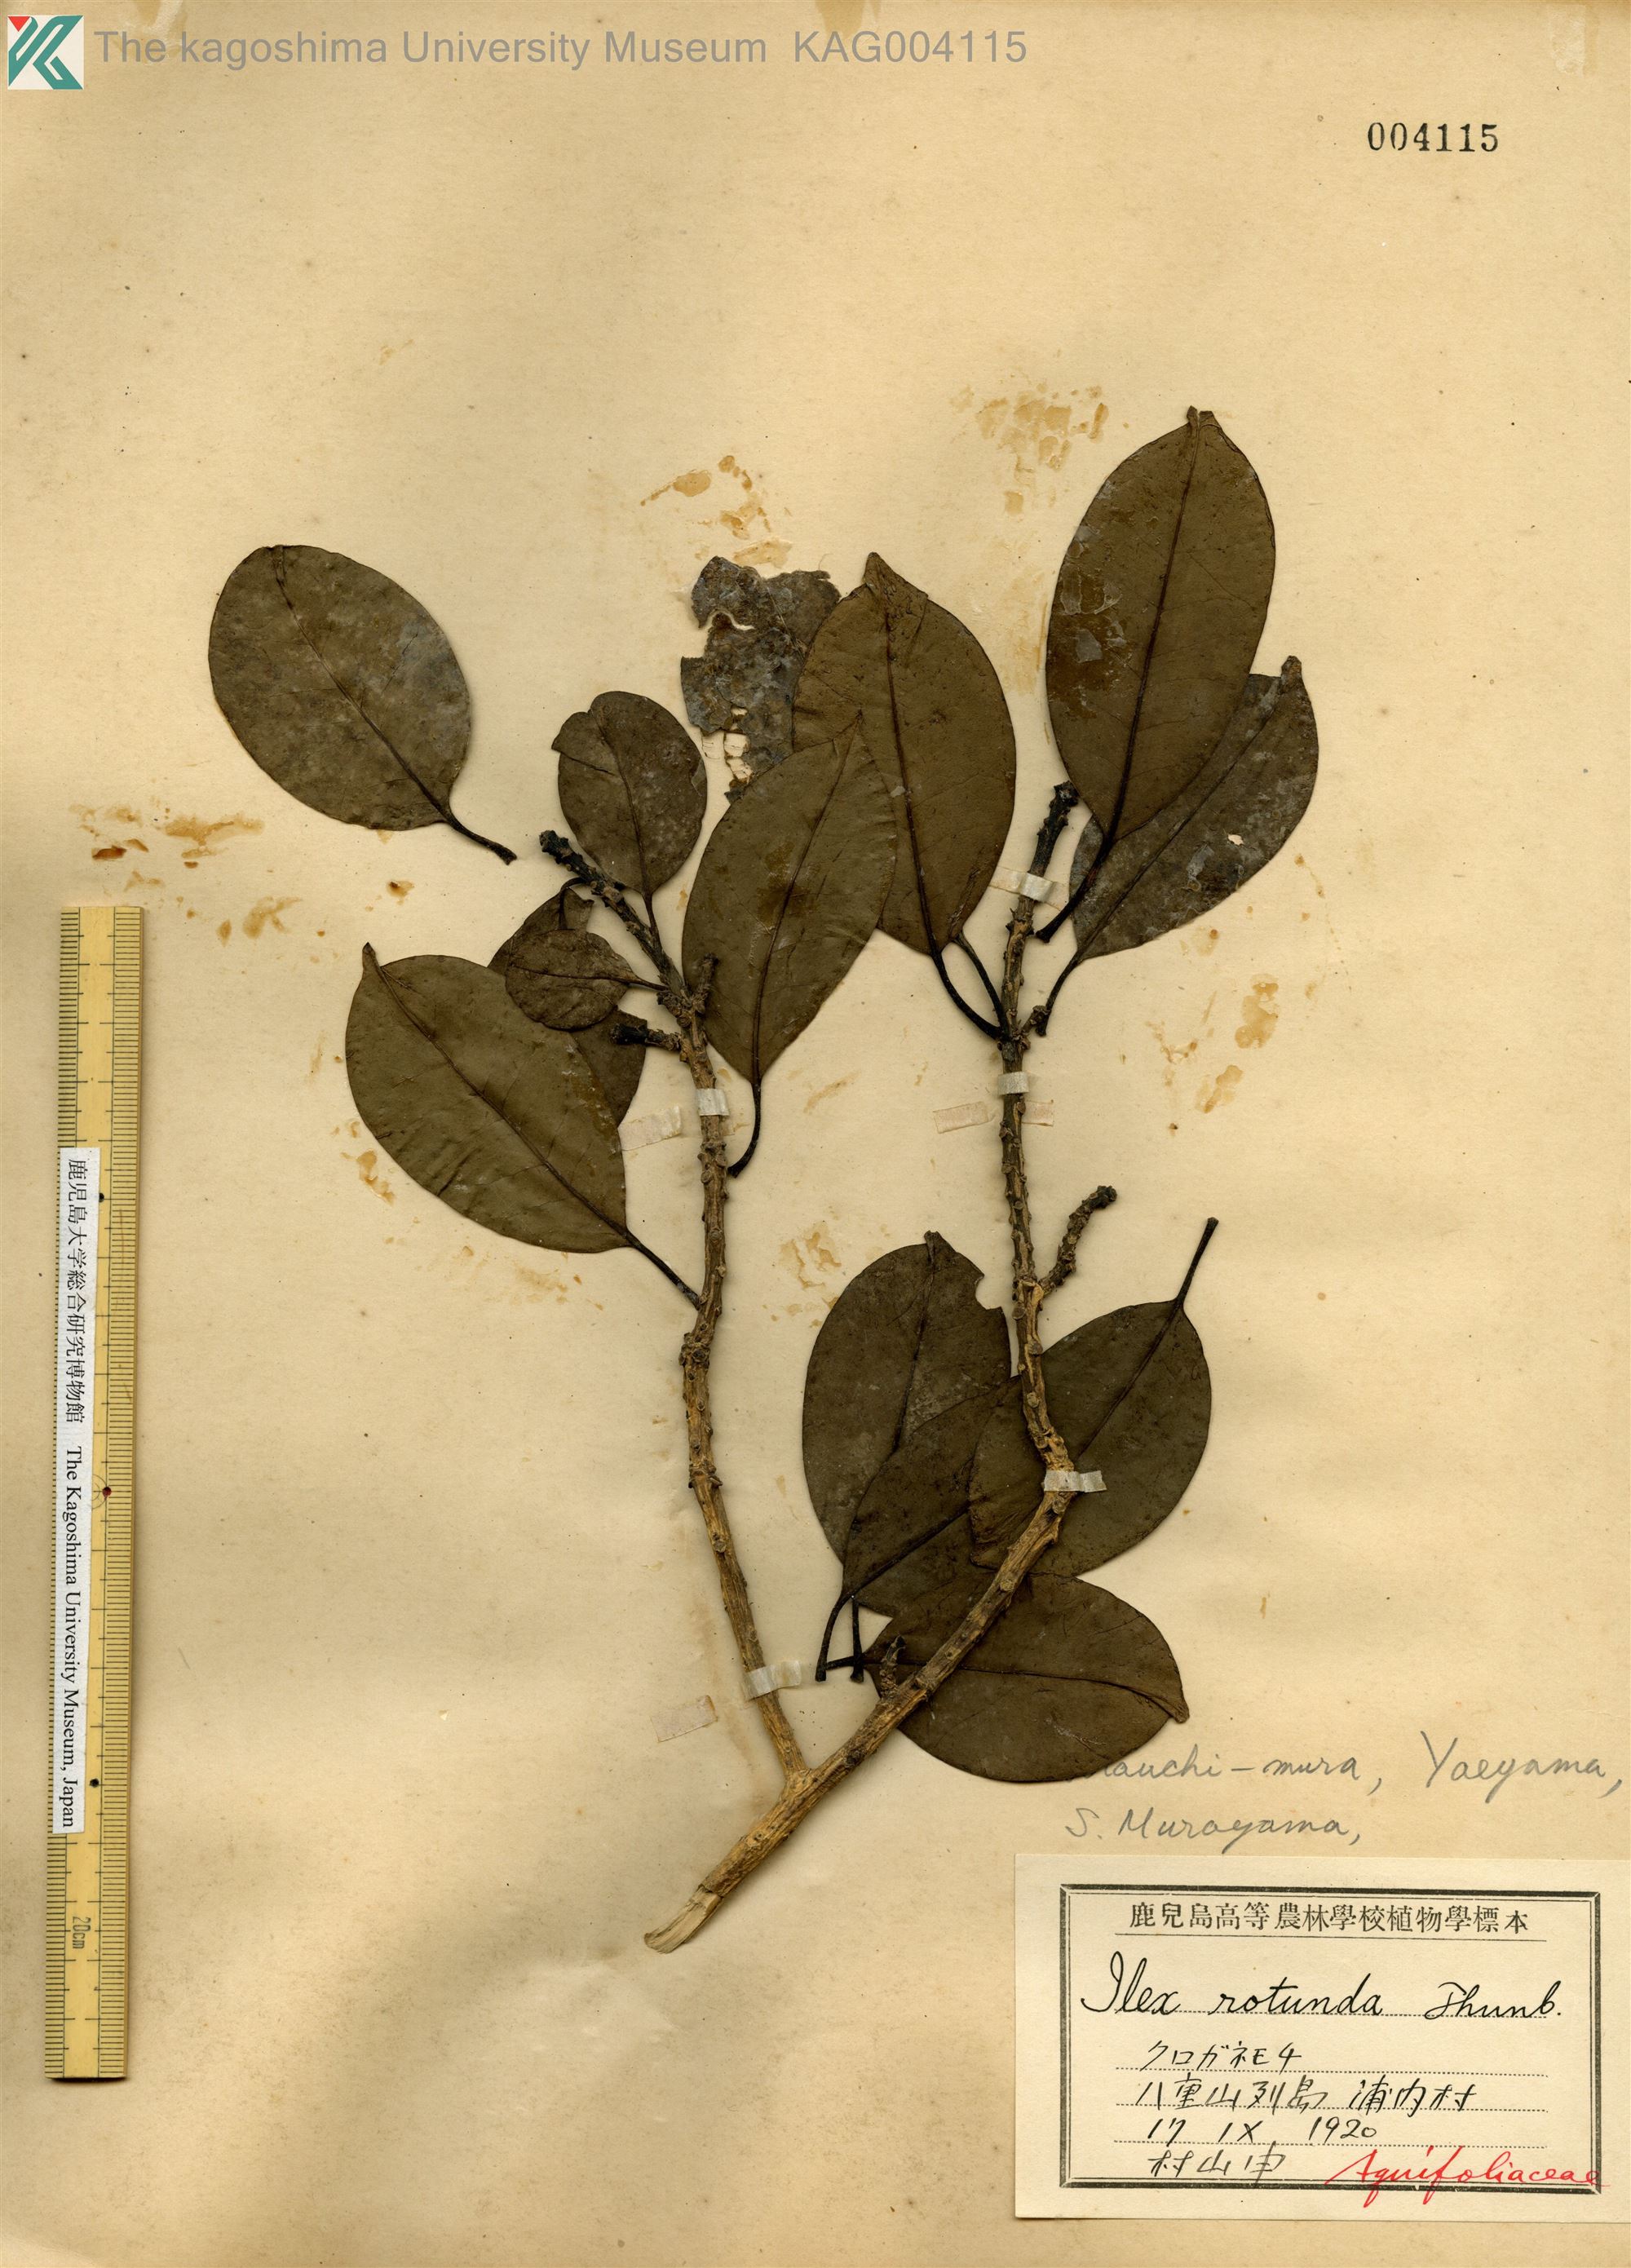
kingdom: Plantae
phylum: Tracheophyta
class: Magnoliopsida
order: Aquifoliales
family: Aquifoliaceae
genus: Ilex
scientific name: Ilex rotunda
